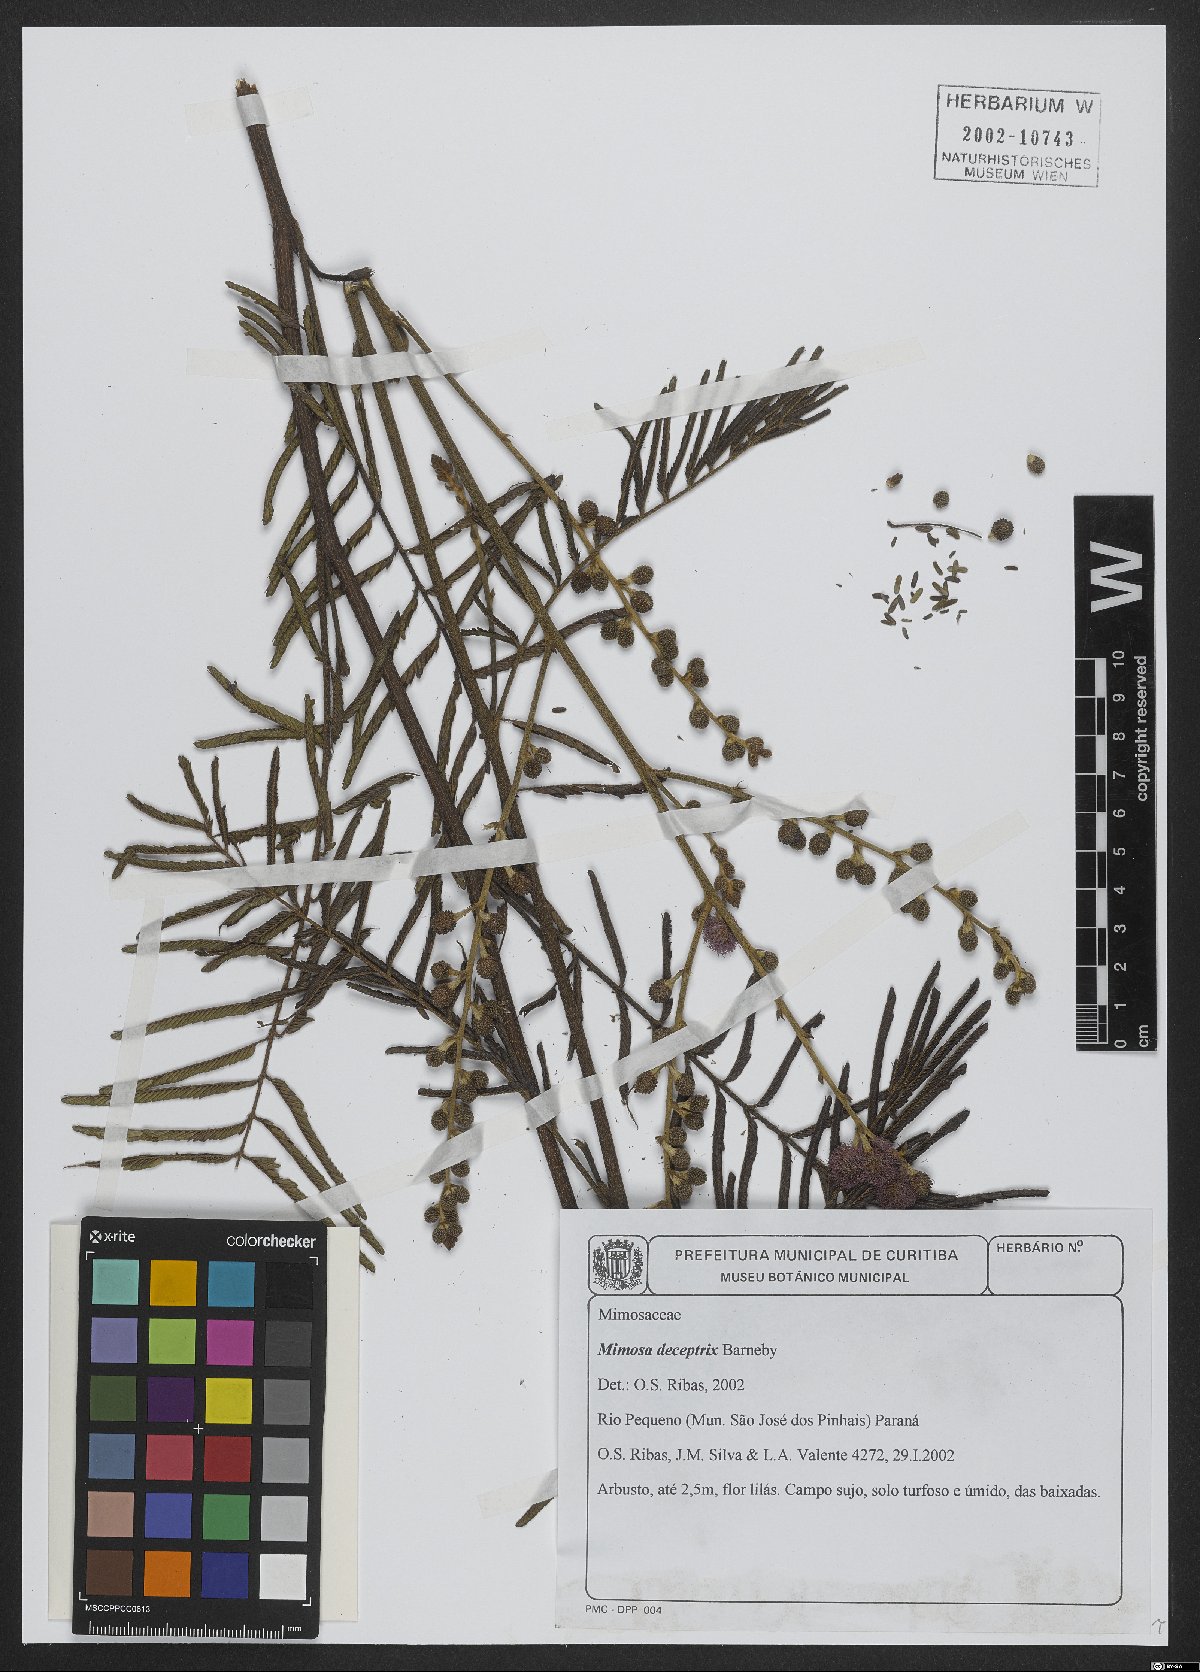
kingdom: Plantae
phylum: Tracheophyta
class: Magnoliopsida
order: Fabales
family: Fabaceae
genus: Mimosa
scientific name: Mimosa deceptrix
